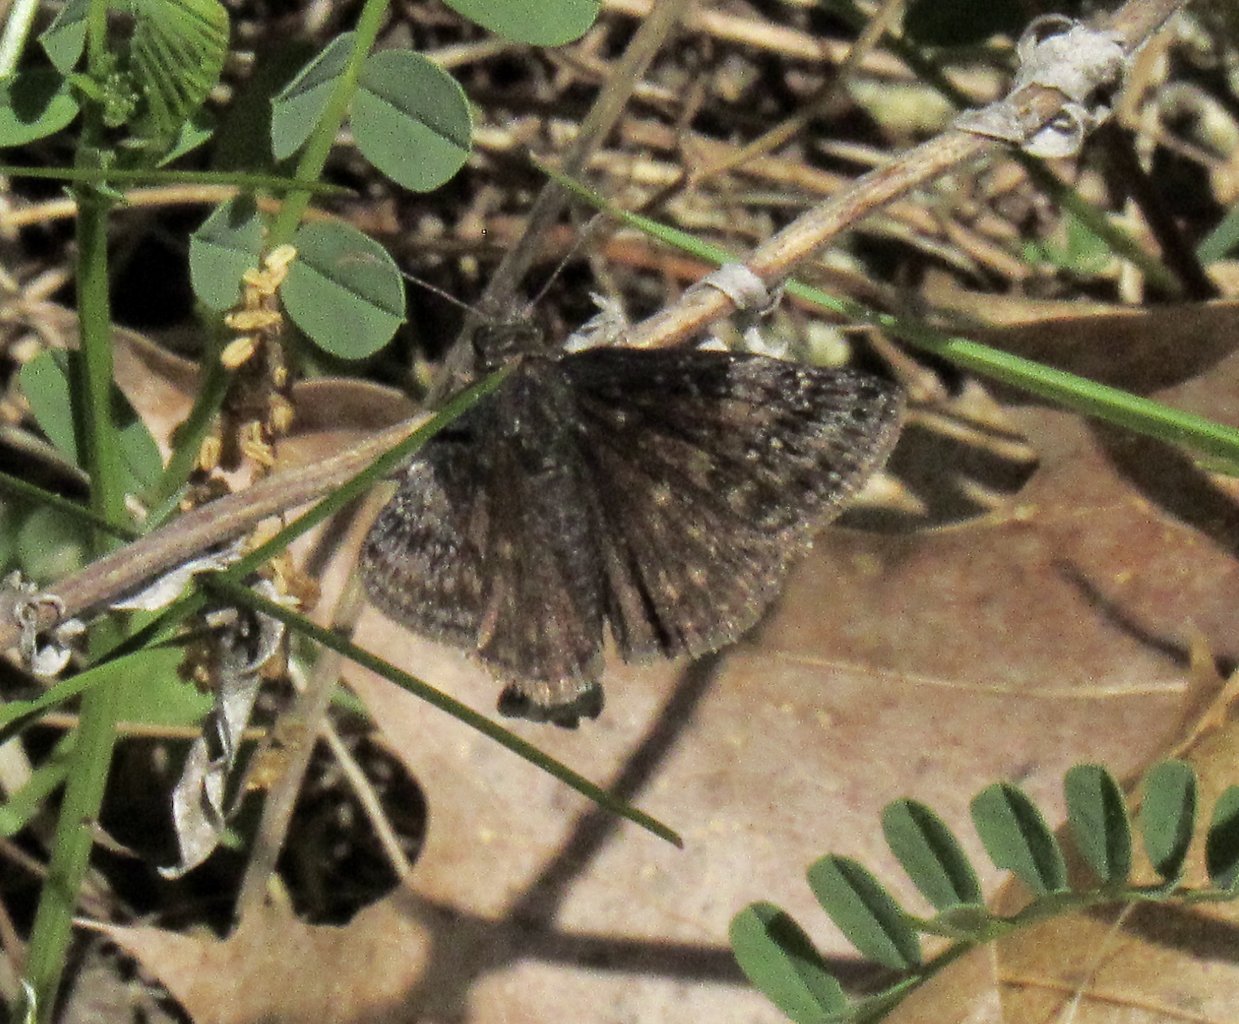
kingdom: Animalia
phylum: Arthropoda
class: Insecta
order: Lepidoptera
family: Hesperiidae
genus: Gesta
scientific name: Gesta
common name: Wild Indigo Duskywing
